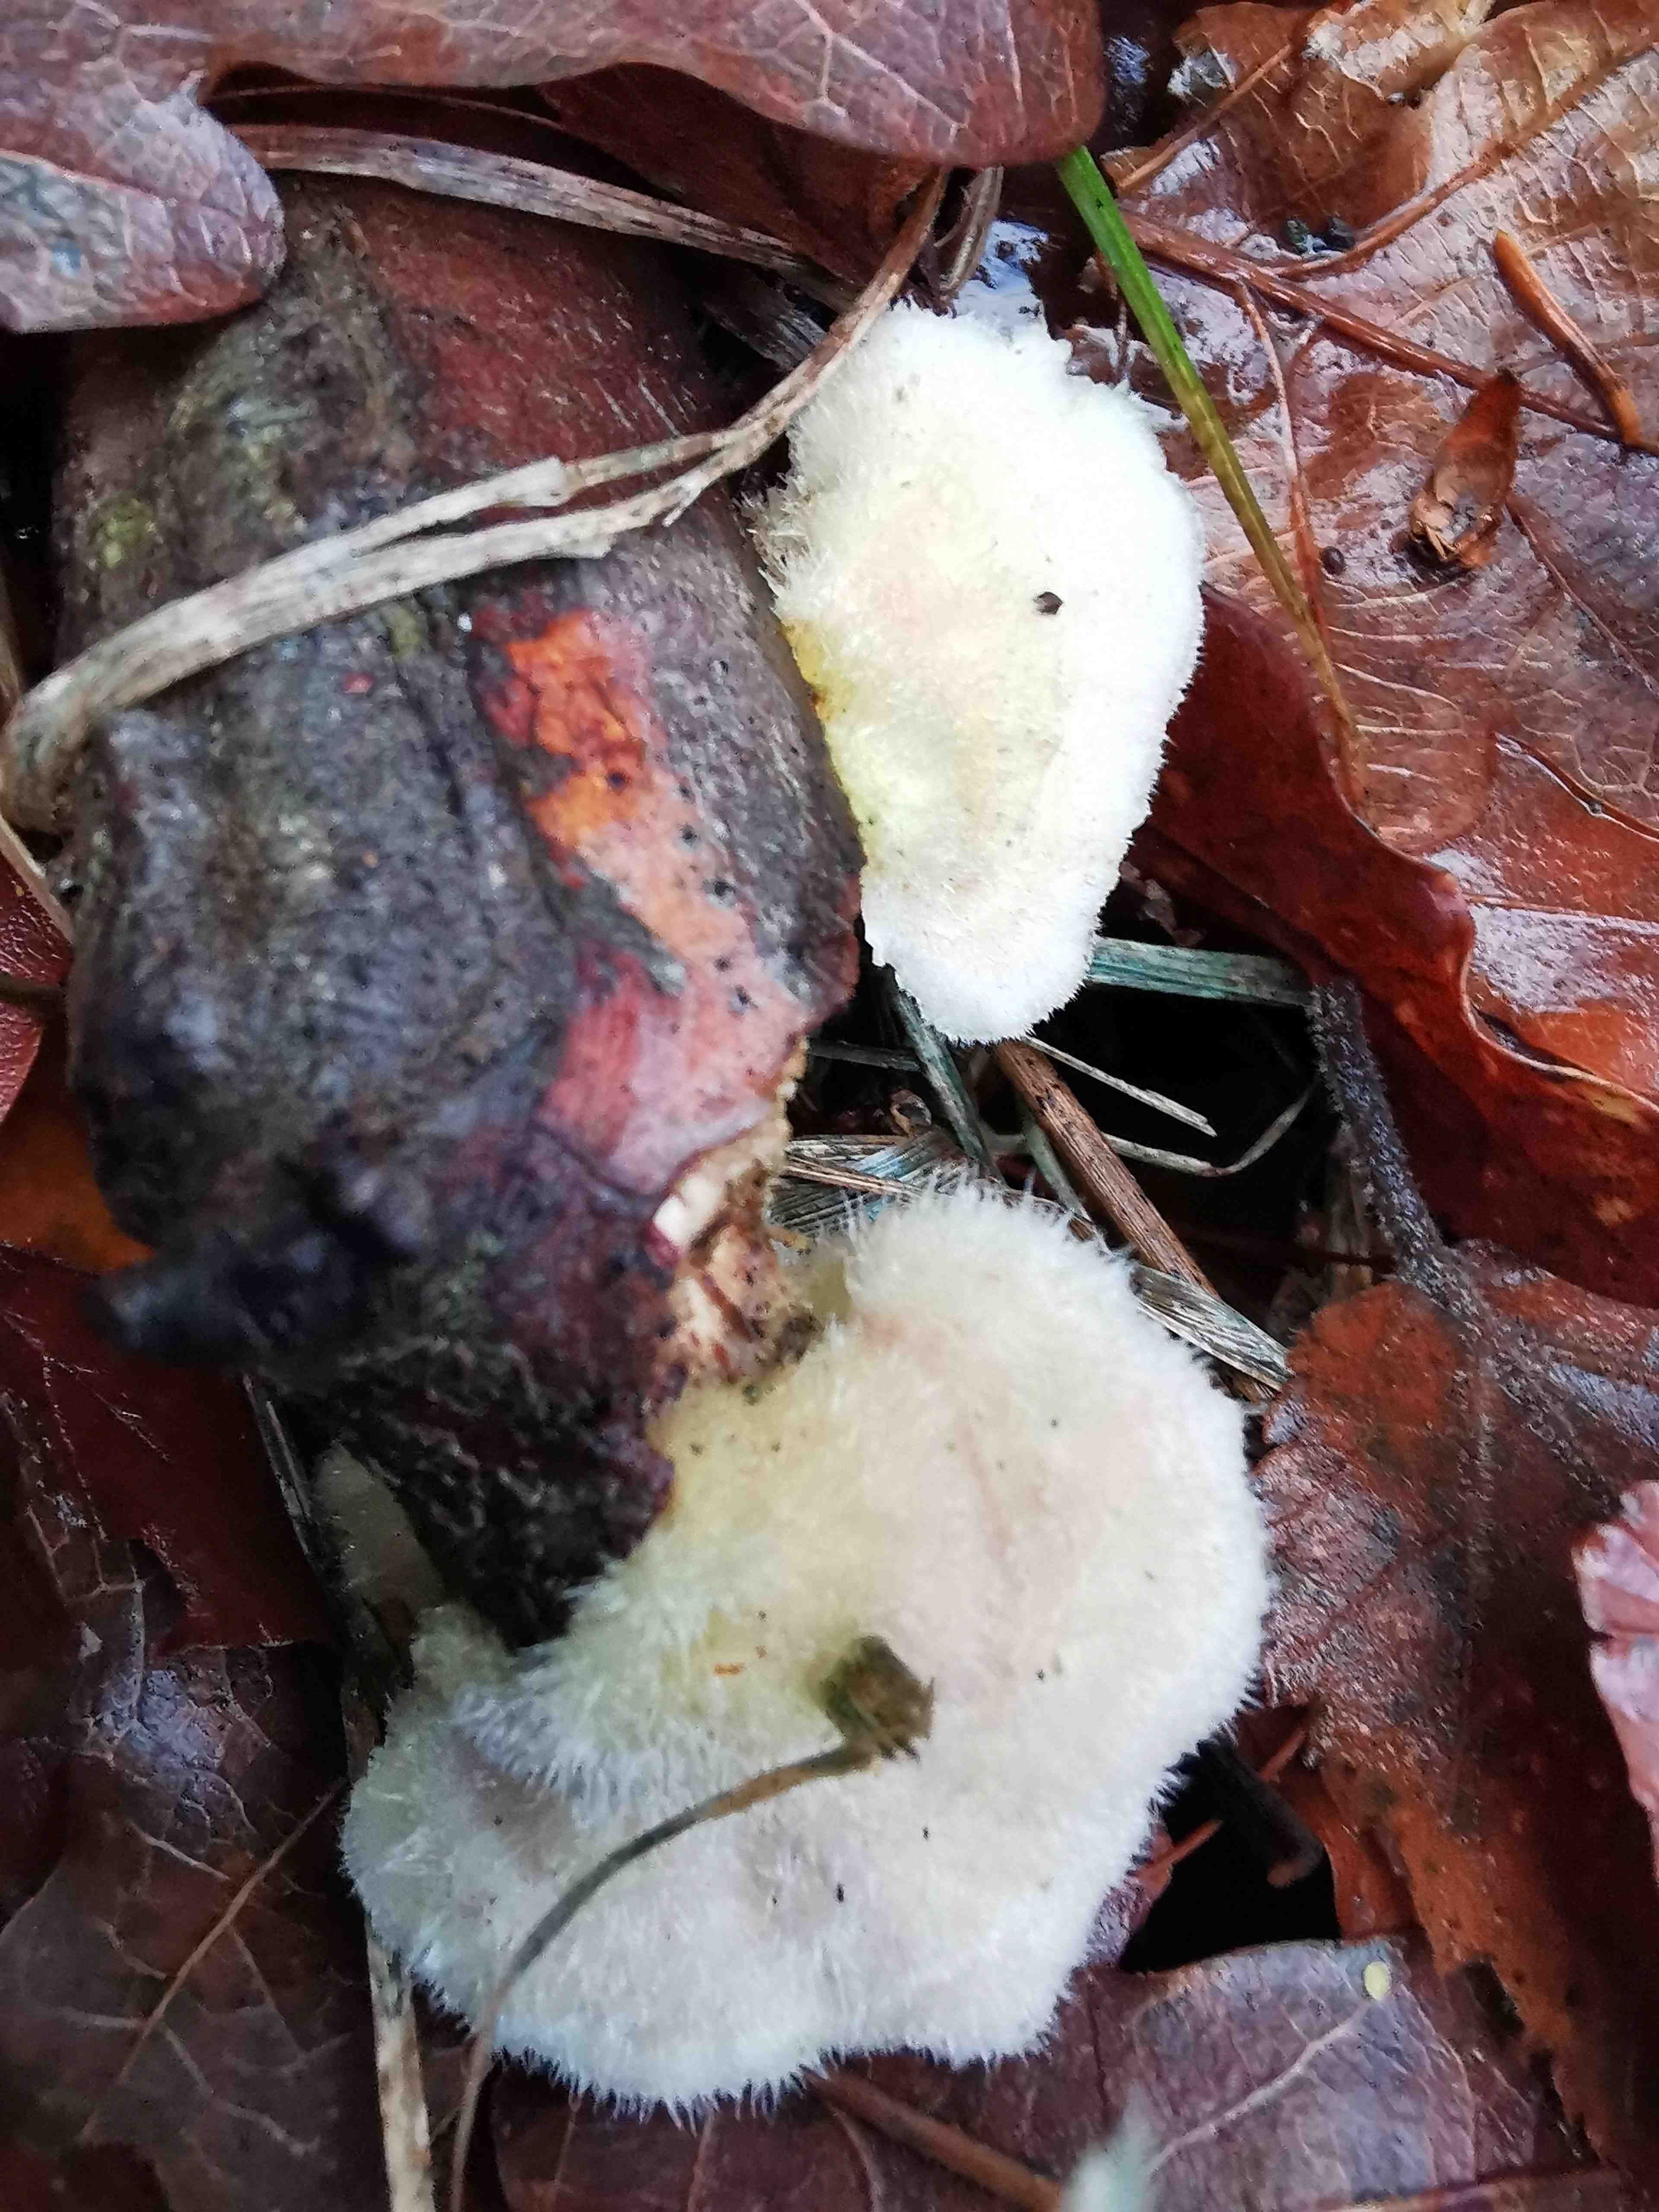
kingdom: Fungi
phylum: Basidiomycota
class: Agaricomycetes
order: Polyporales
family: Polyporaceae
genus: Trametes
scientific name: Trametes hirsuta
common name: håret læderporesvamp
